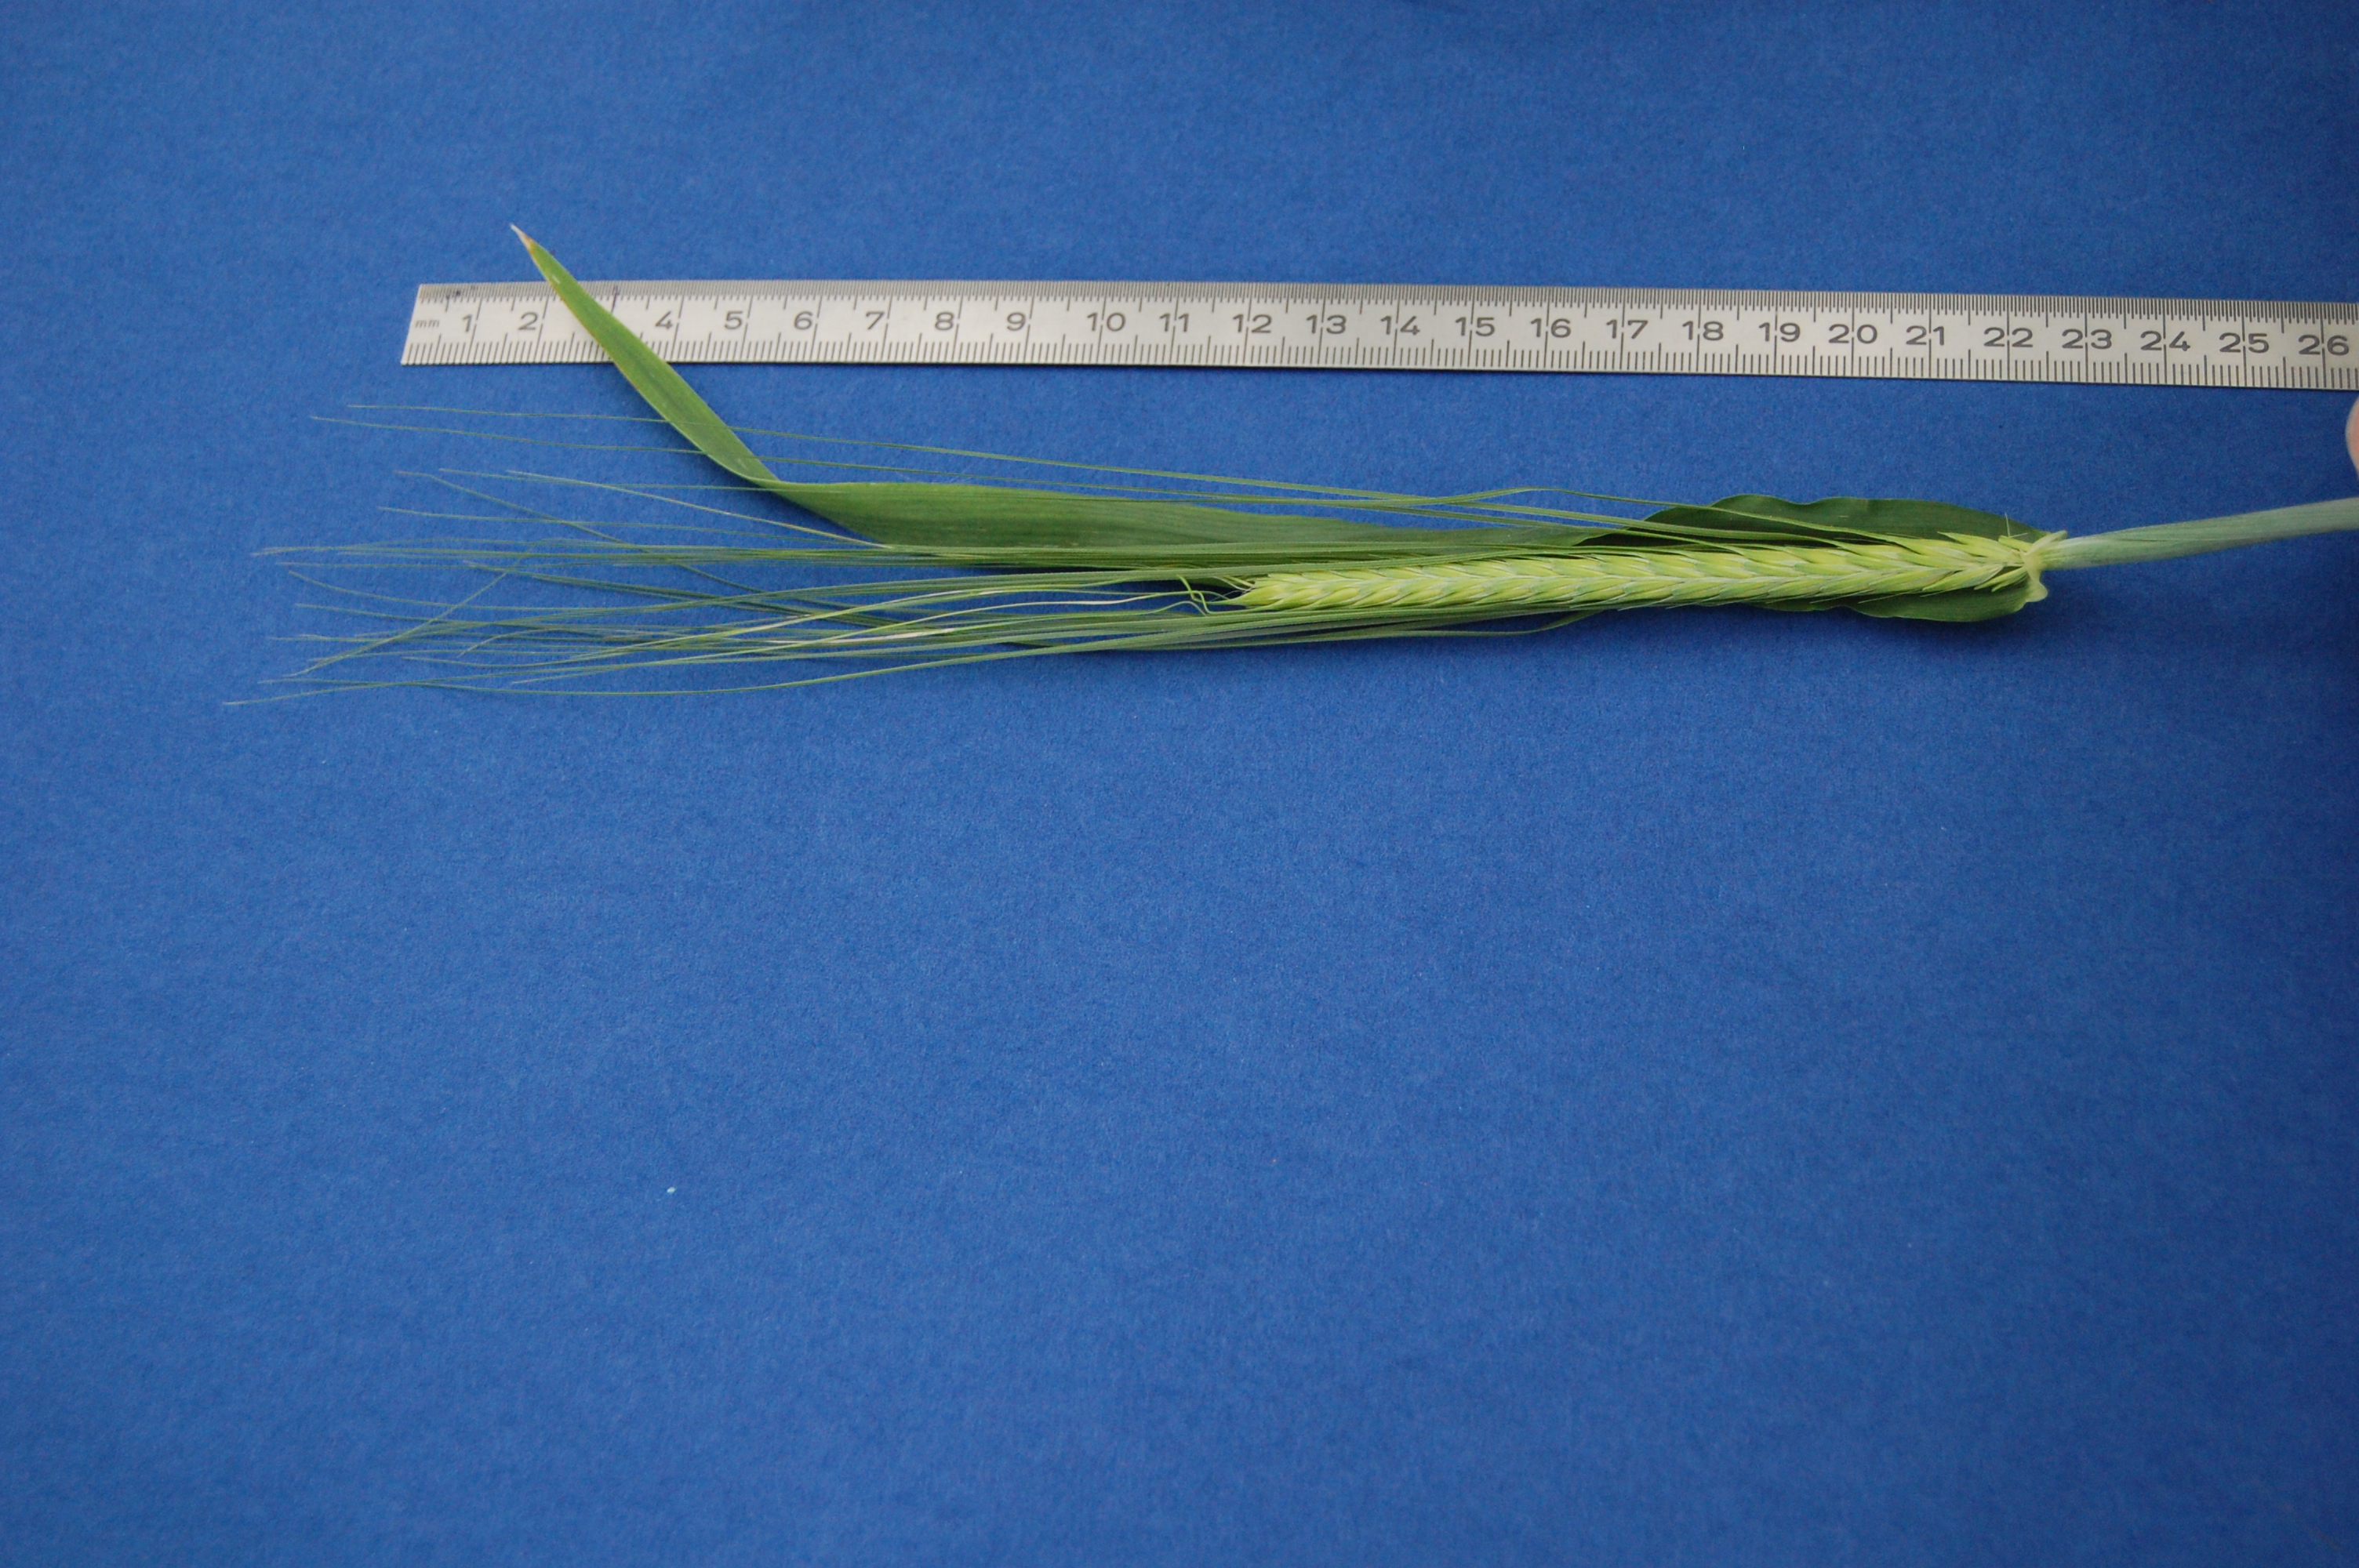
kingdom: Plantae
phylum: Tracheophyta
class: Liliopsida
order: Poales
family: Poaceae
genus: Hordeum
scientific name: Hordeum vulgare
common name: Common barley
